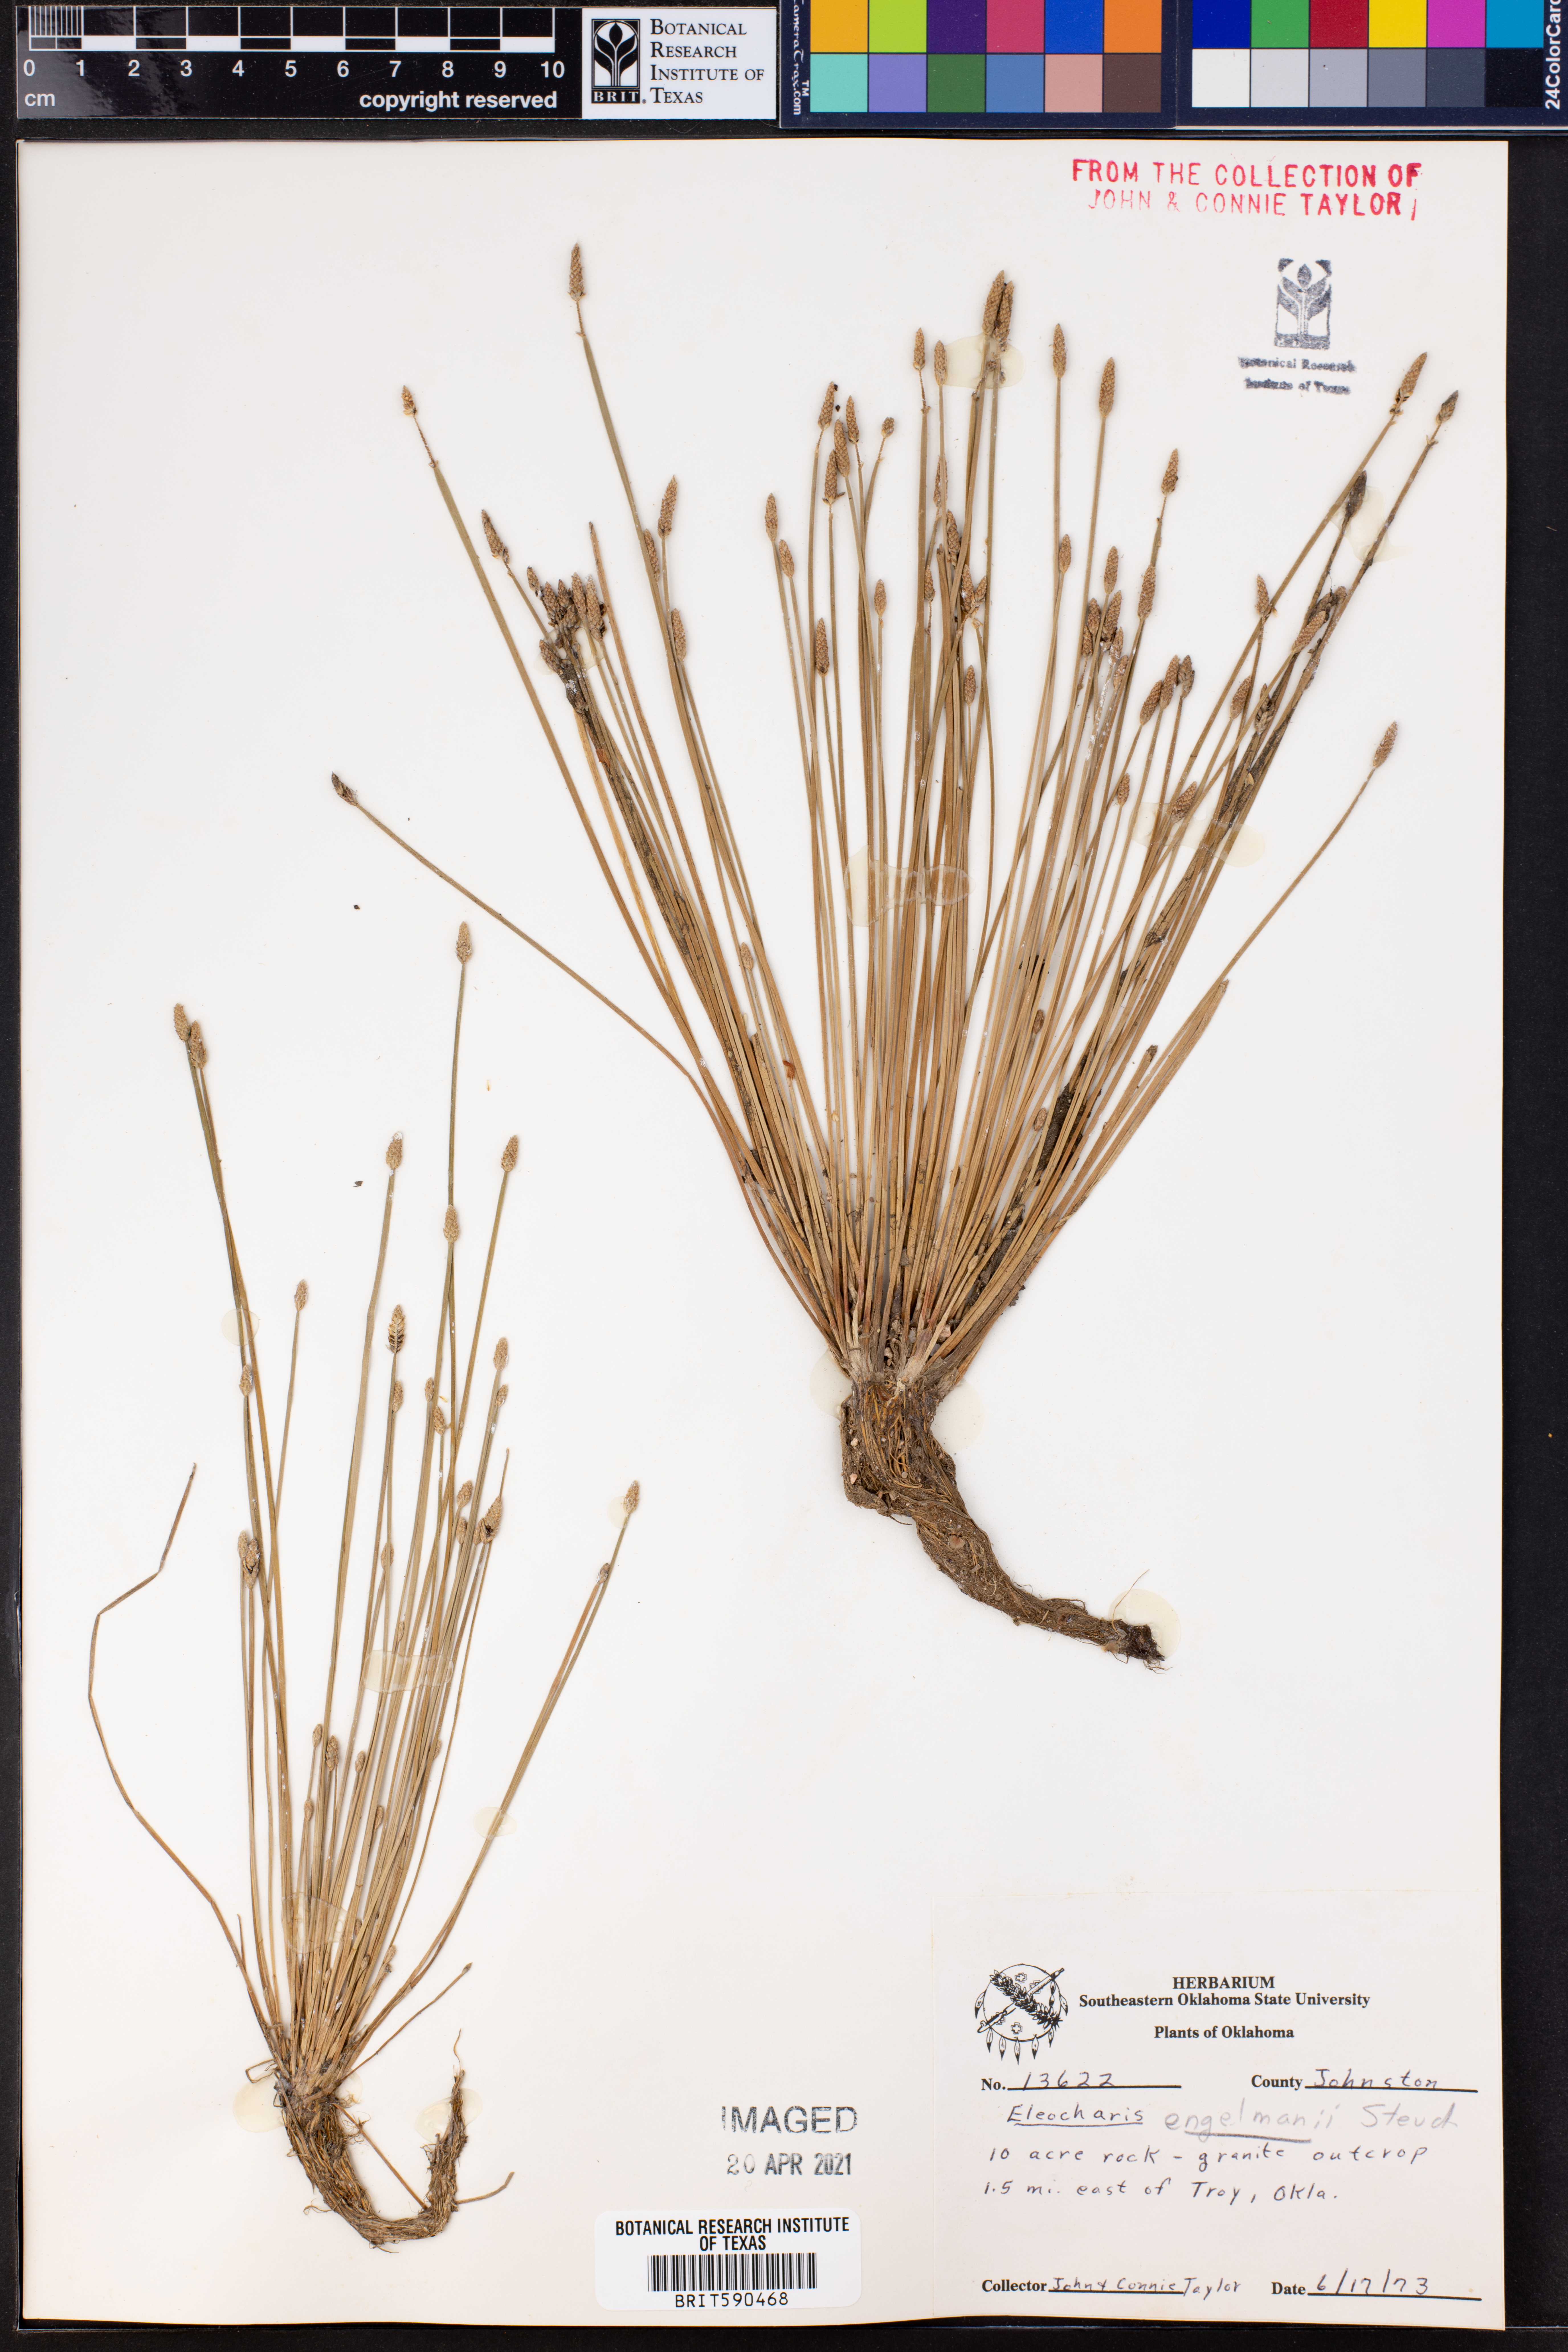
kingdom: Plantae
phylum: Tracheophyta
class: Liliopsida
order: Poales
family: Cyperaceae
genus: Eleocharis
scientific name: Eleocharis engelmannii
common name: Engelmann's spikerush
